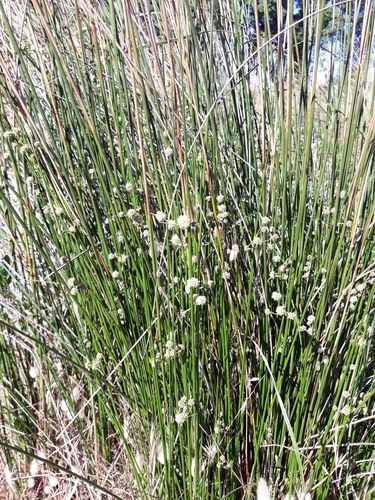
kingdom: Plantae
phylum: Tracheophyta
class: Liliopsida
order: Poales
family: Cyperaceae
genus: Scirpoides
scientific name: Scirpoides holoschoenus
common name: Round-headed club-rush
